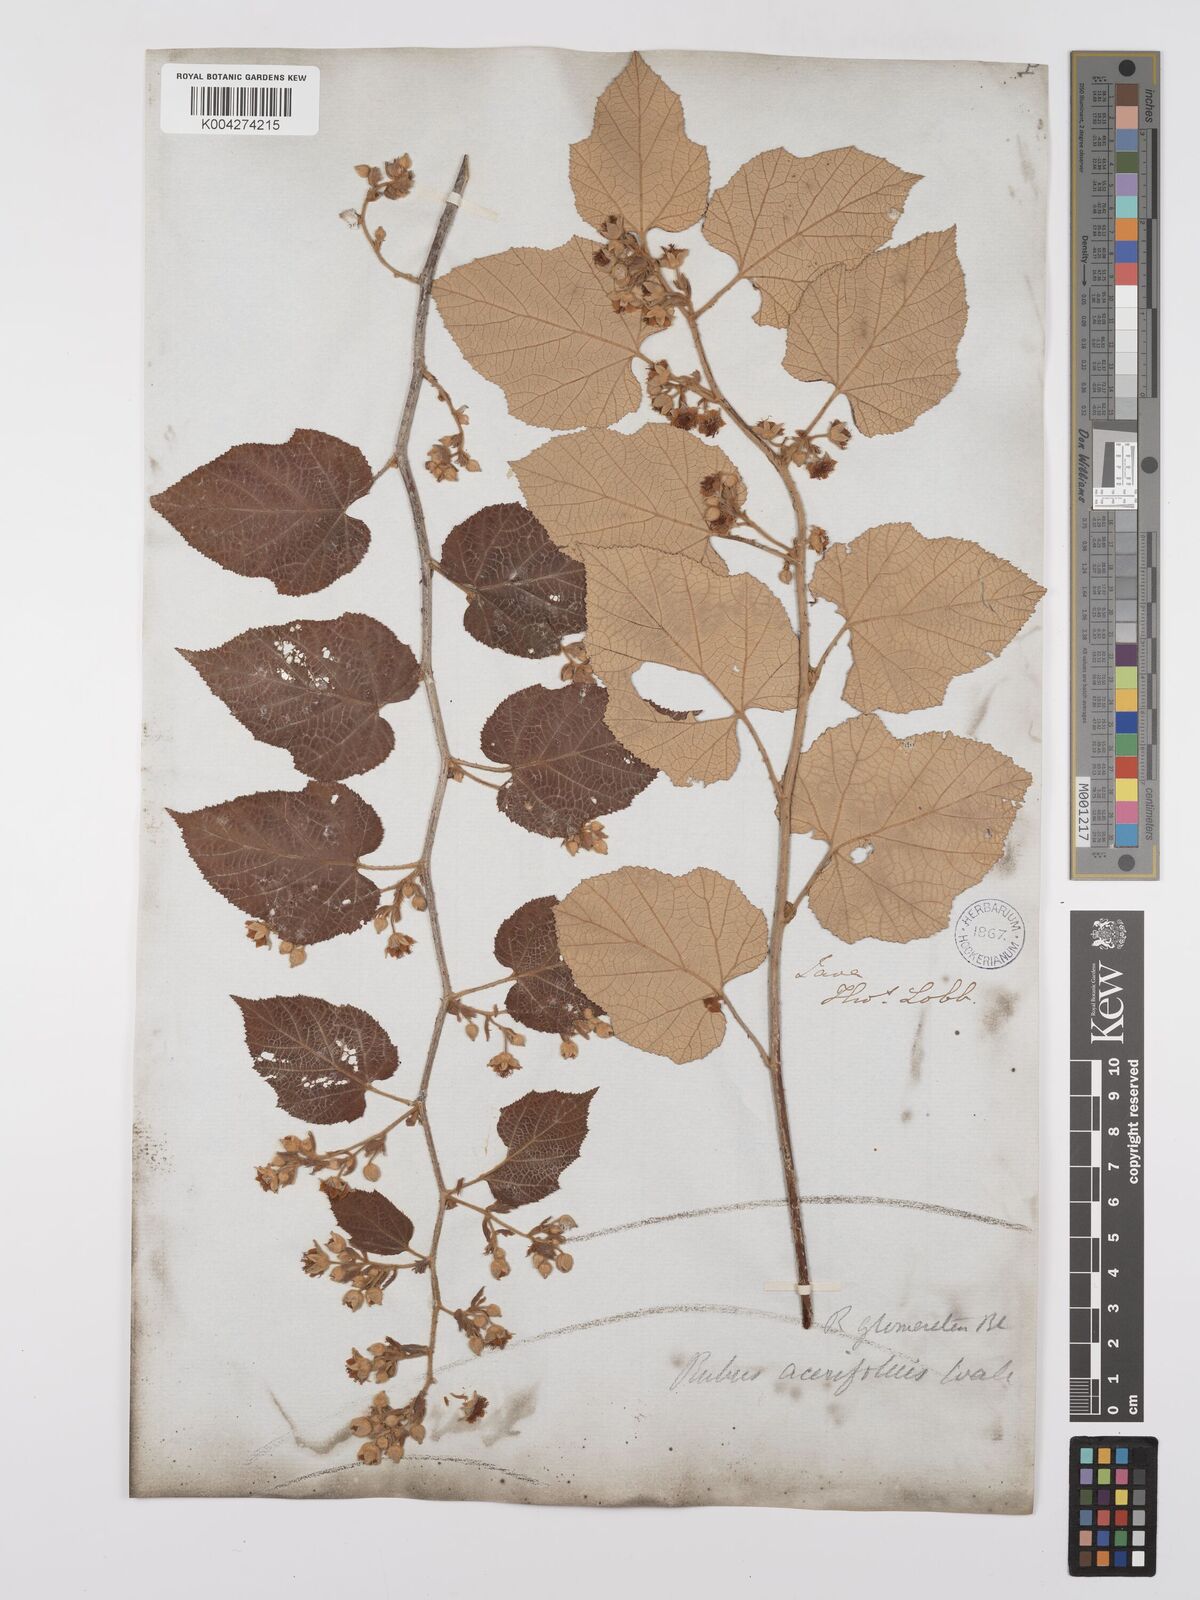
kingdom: Plantae
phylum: Tracheophyta
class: Magnoliopsida
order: Rosales
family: Rosaceae
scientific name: Rosaceae
